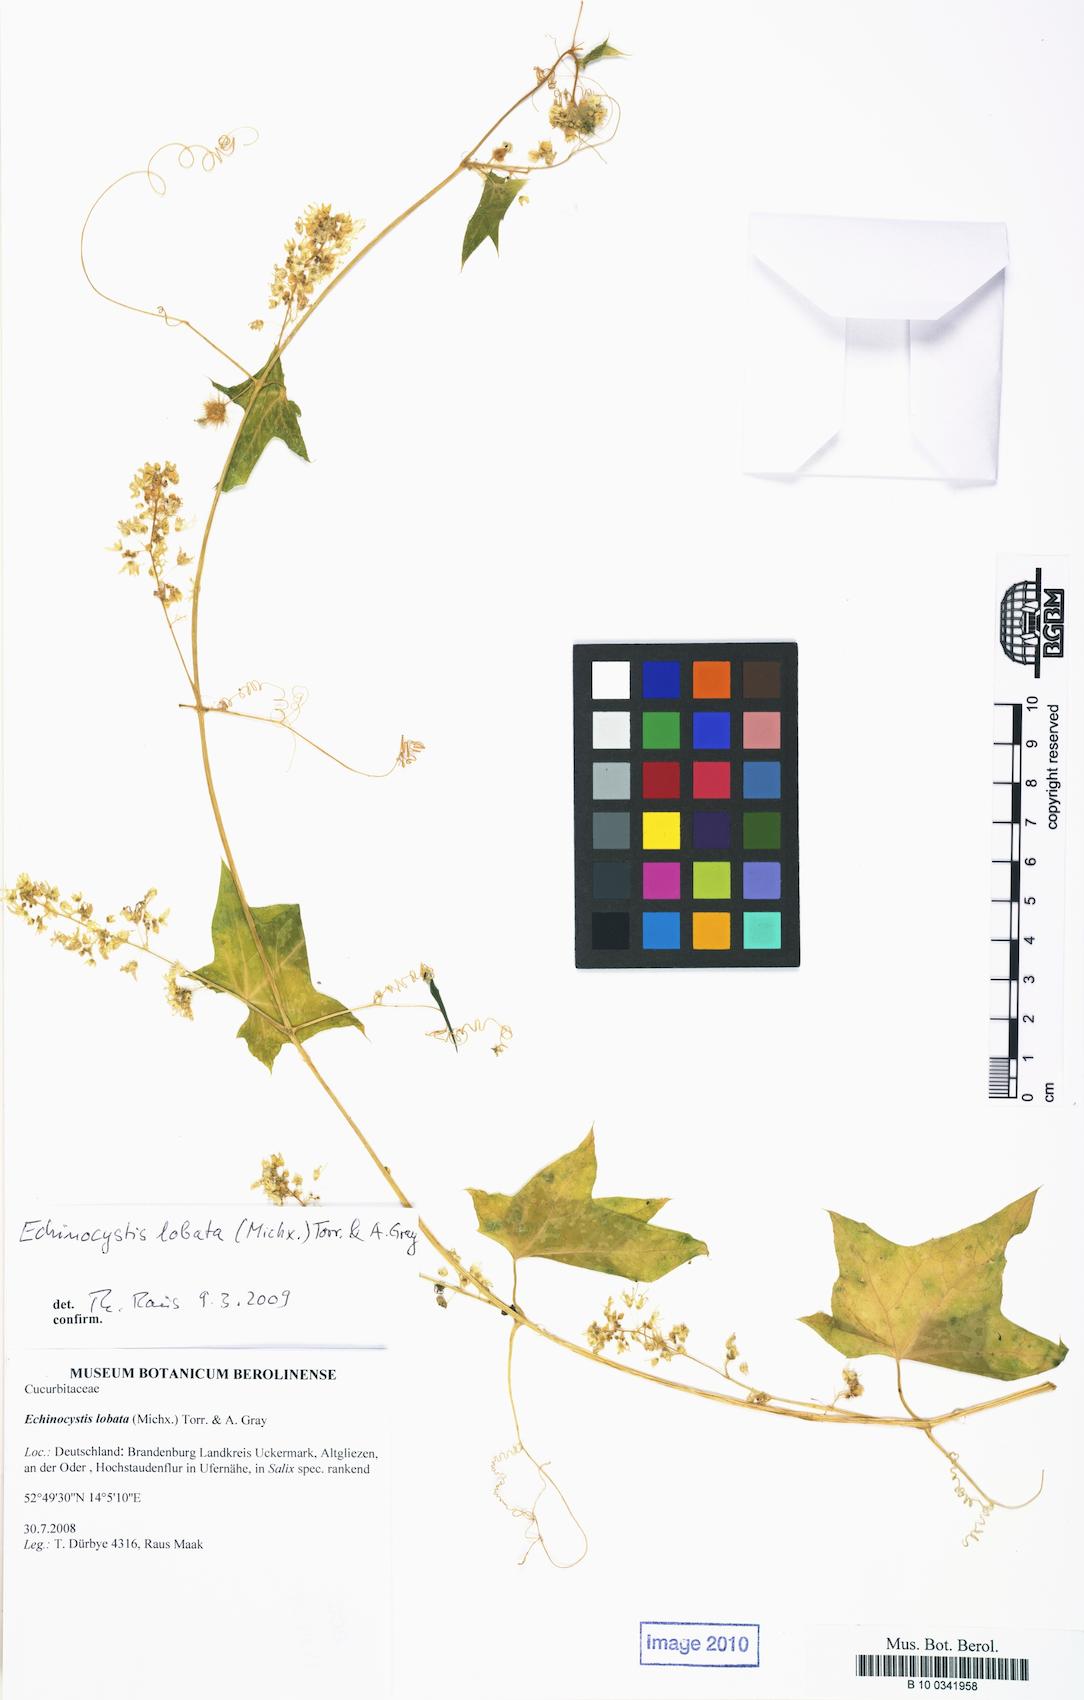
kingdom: Plantae
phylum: Tracheophyta
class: Magnoliopsida
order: Cucurbitales
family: Cucurbitaceae
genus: Echinocystis
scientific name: Echinocystis lobata
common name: Wild cucumber
